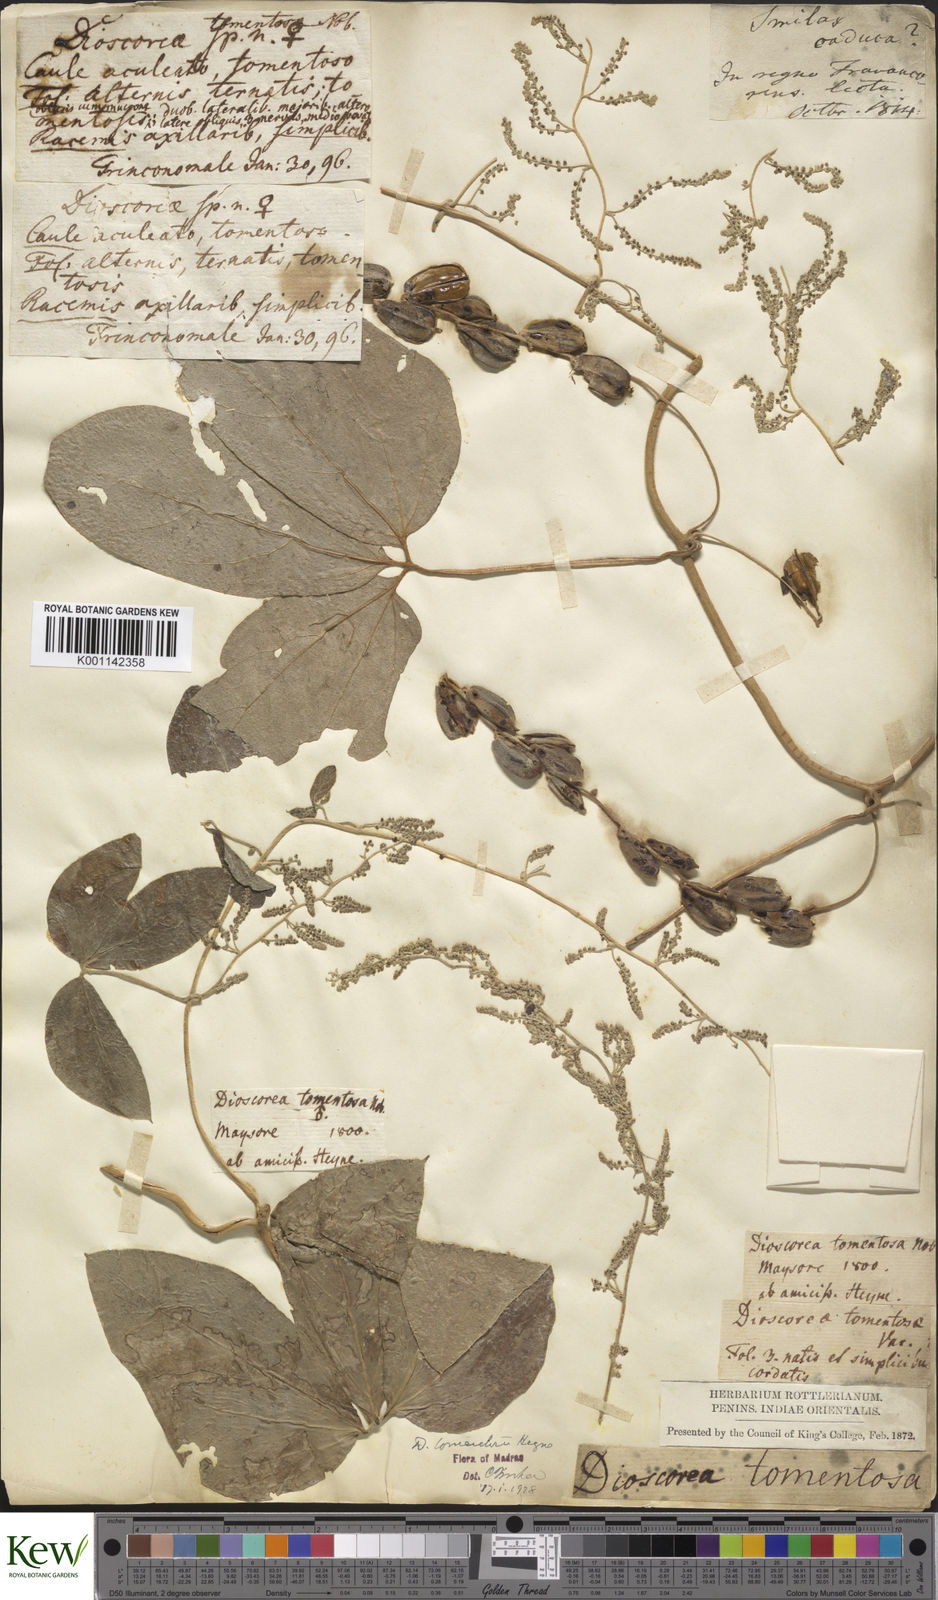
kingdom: Plantae
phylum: Tracheophyta
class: Liliopsida
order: Dioscoreales
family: Dioscoreaceae
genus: Dioscorea
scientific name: Dioscorea
